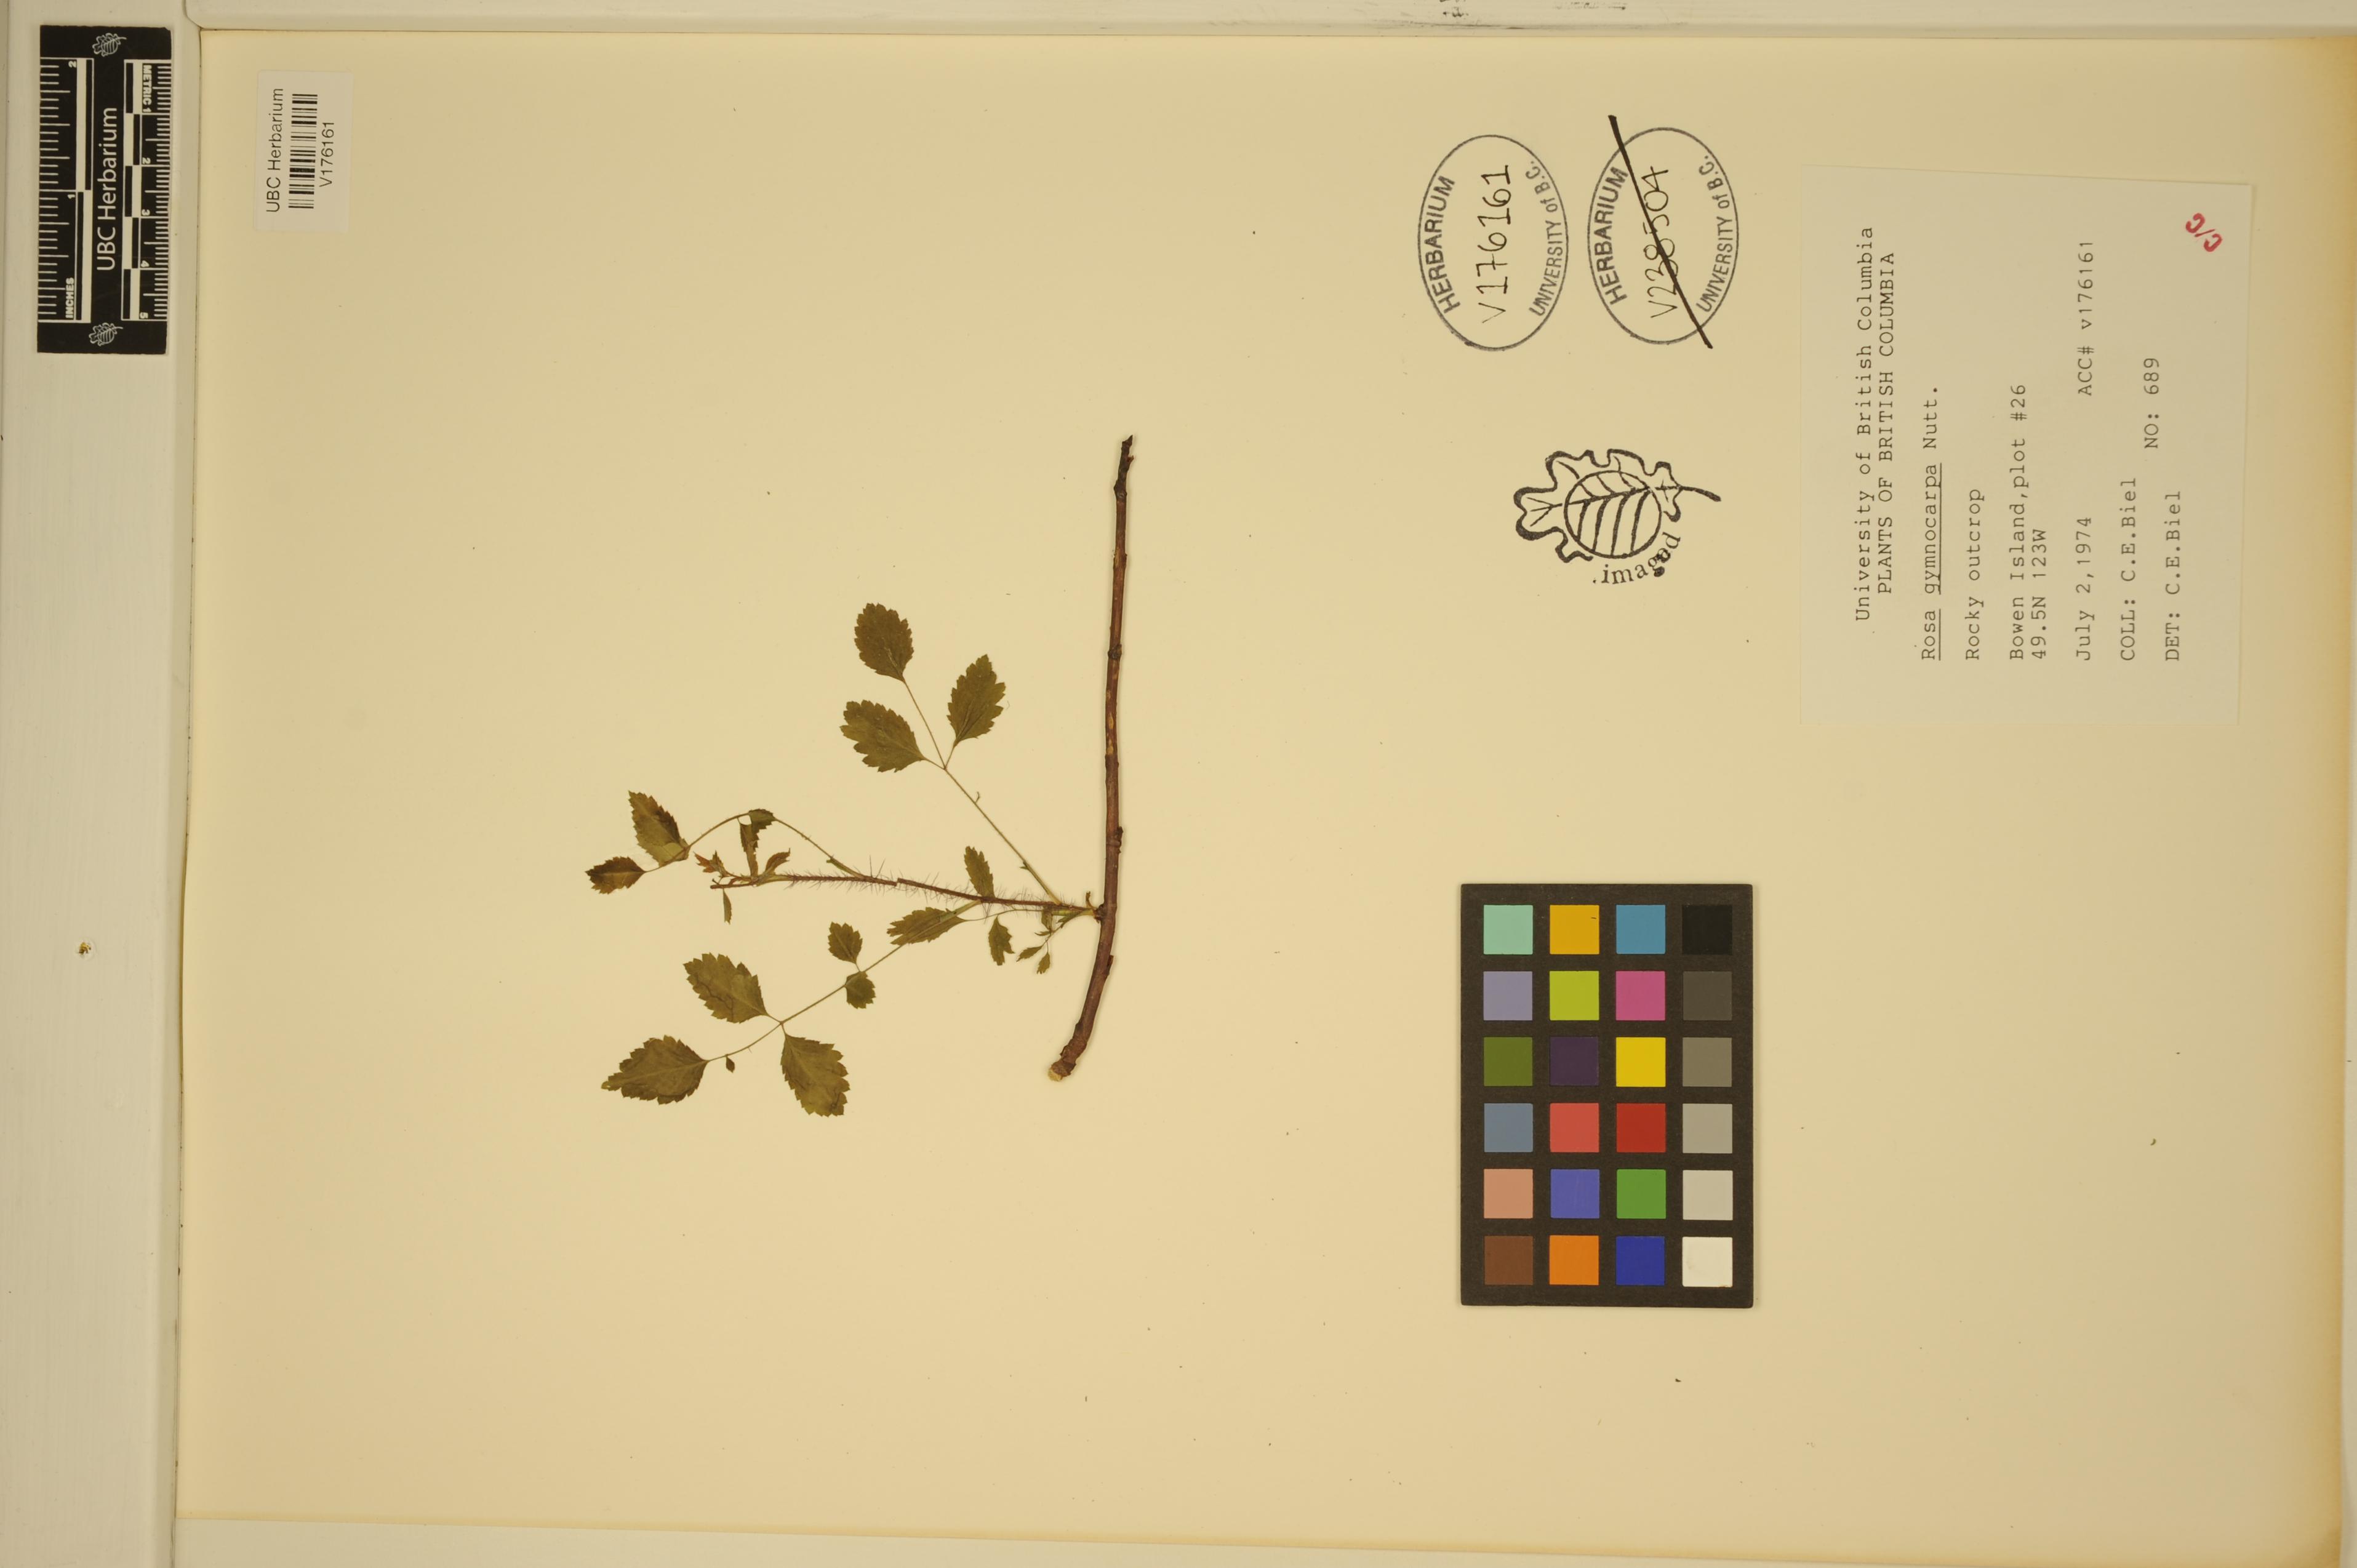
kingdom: Plantae
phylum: Tracheophyta
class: Magnoliopsida
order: Rosales
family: Rosaceae
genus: Rosa
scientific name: Rosa gymnocarpa
